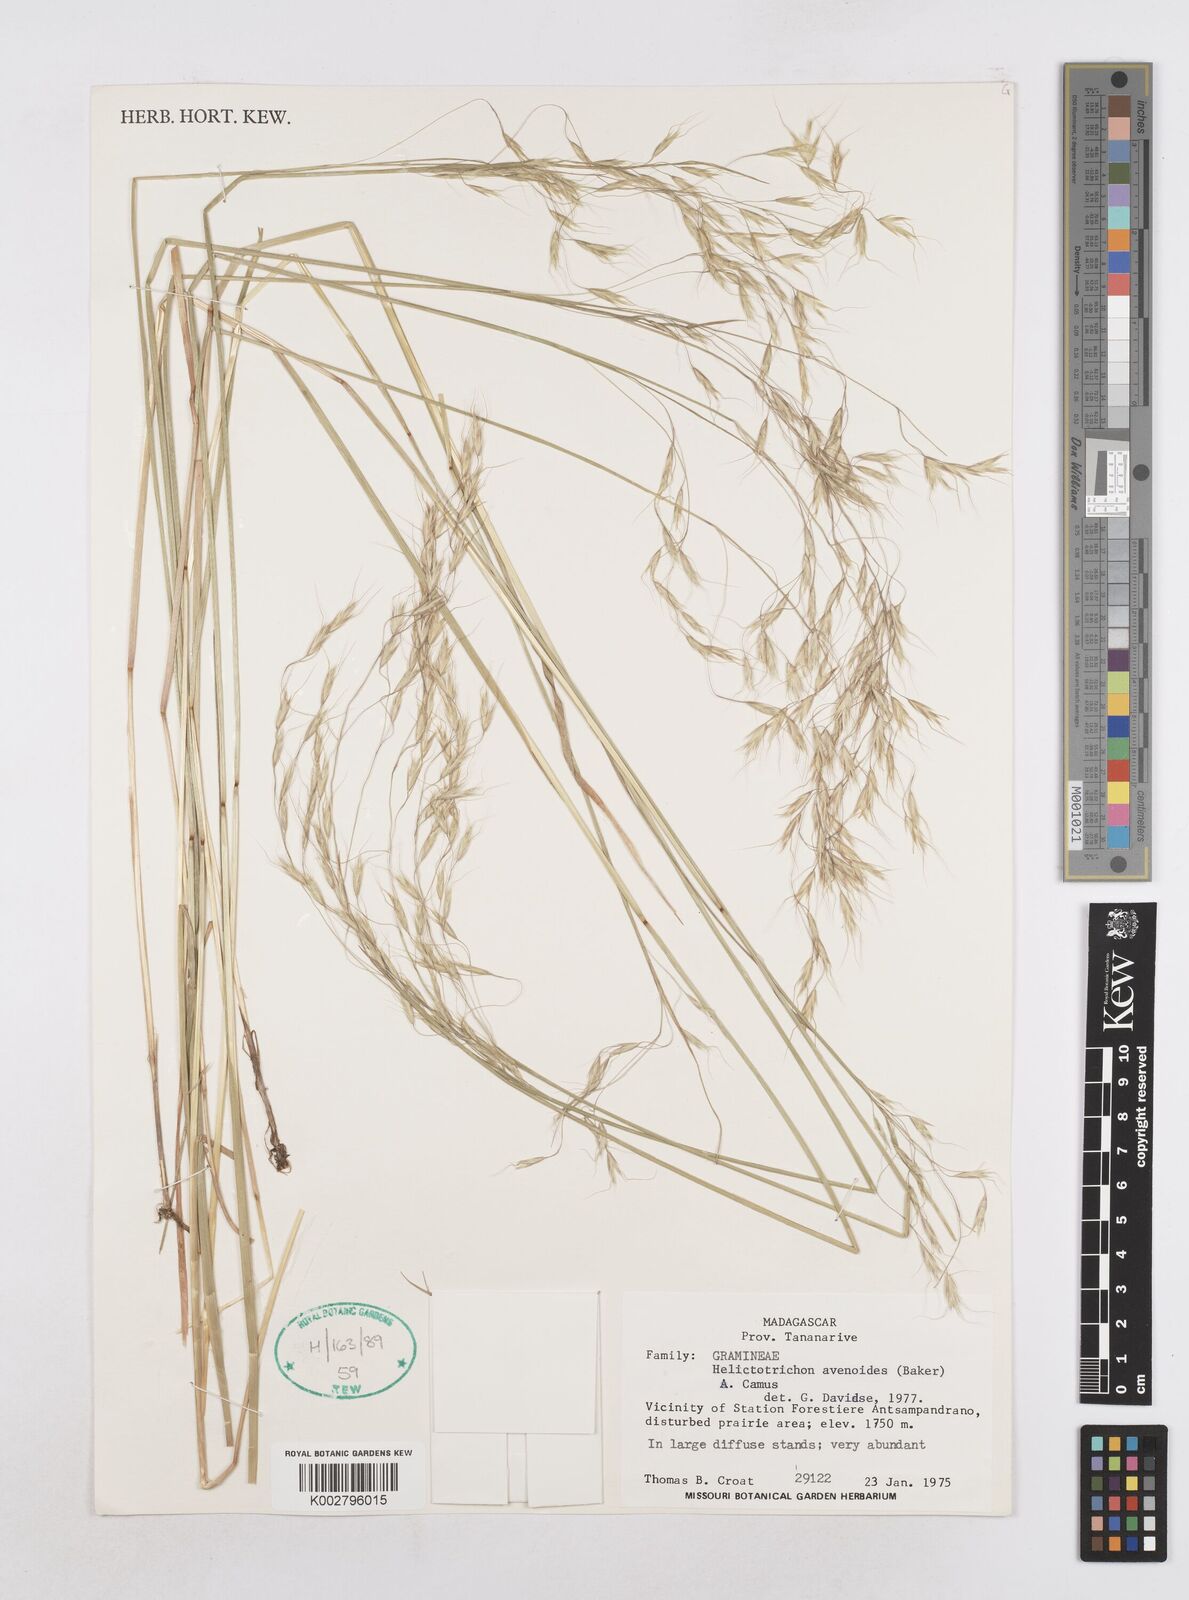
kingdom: Plantae
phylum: Tracheophyta
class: Liliopsida
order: Poales
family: Poaceae
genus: Trisetopsis
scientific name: Trisetopsis elongata
